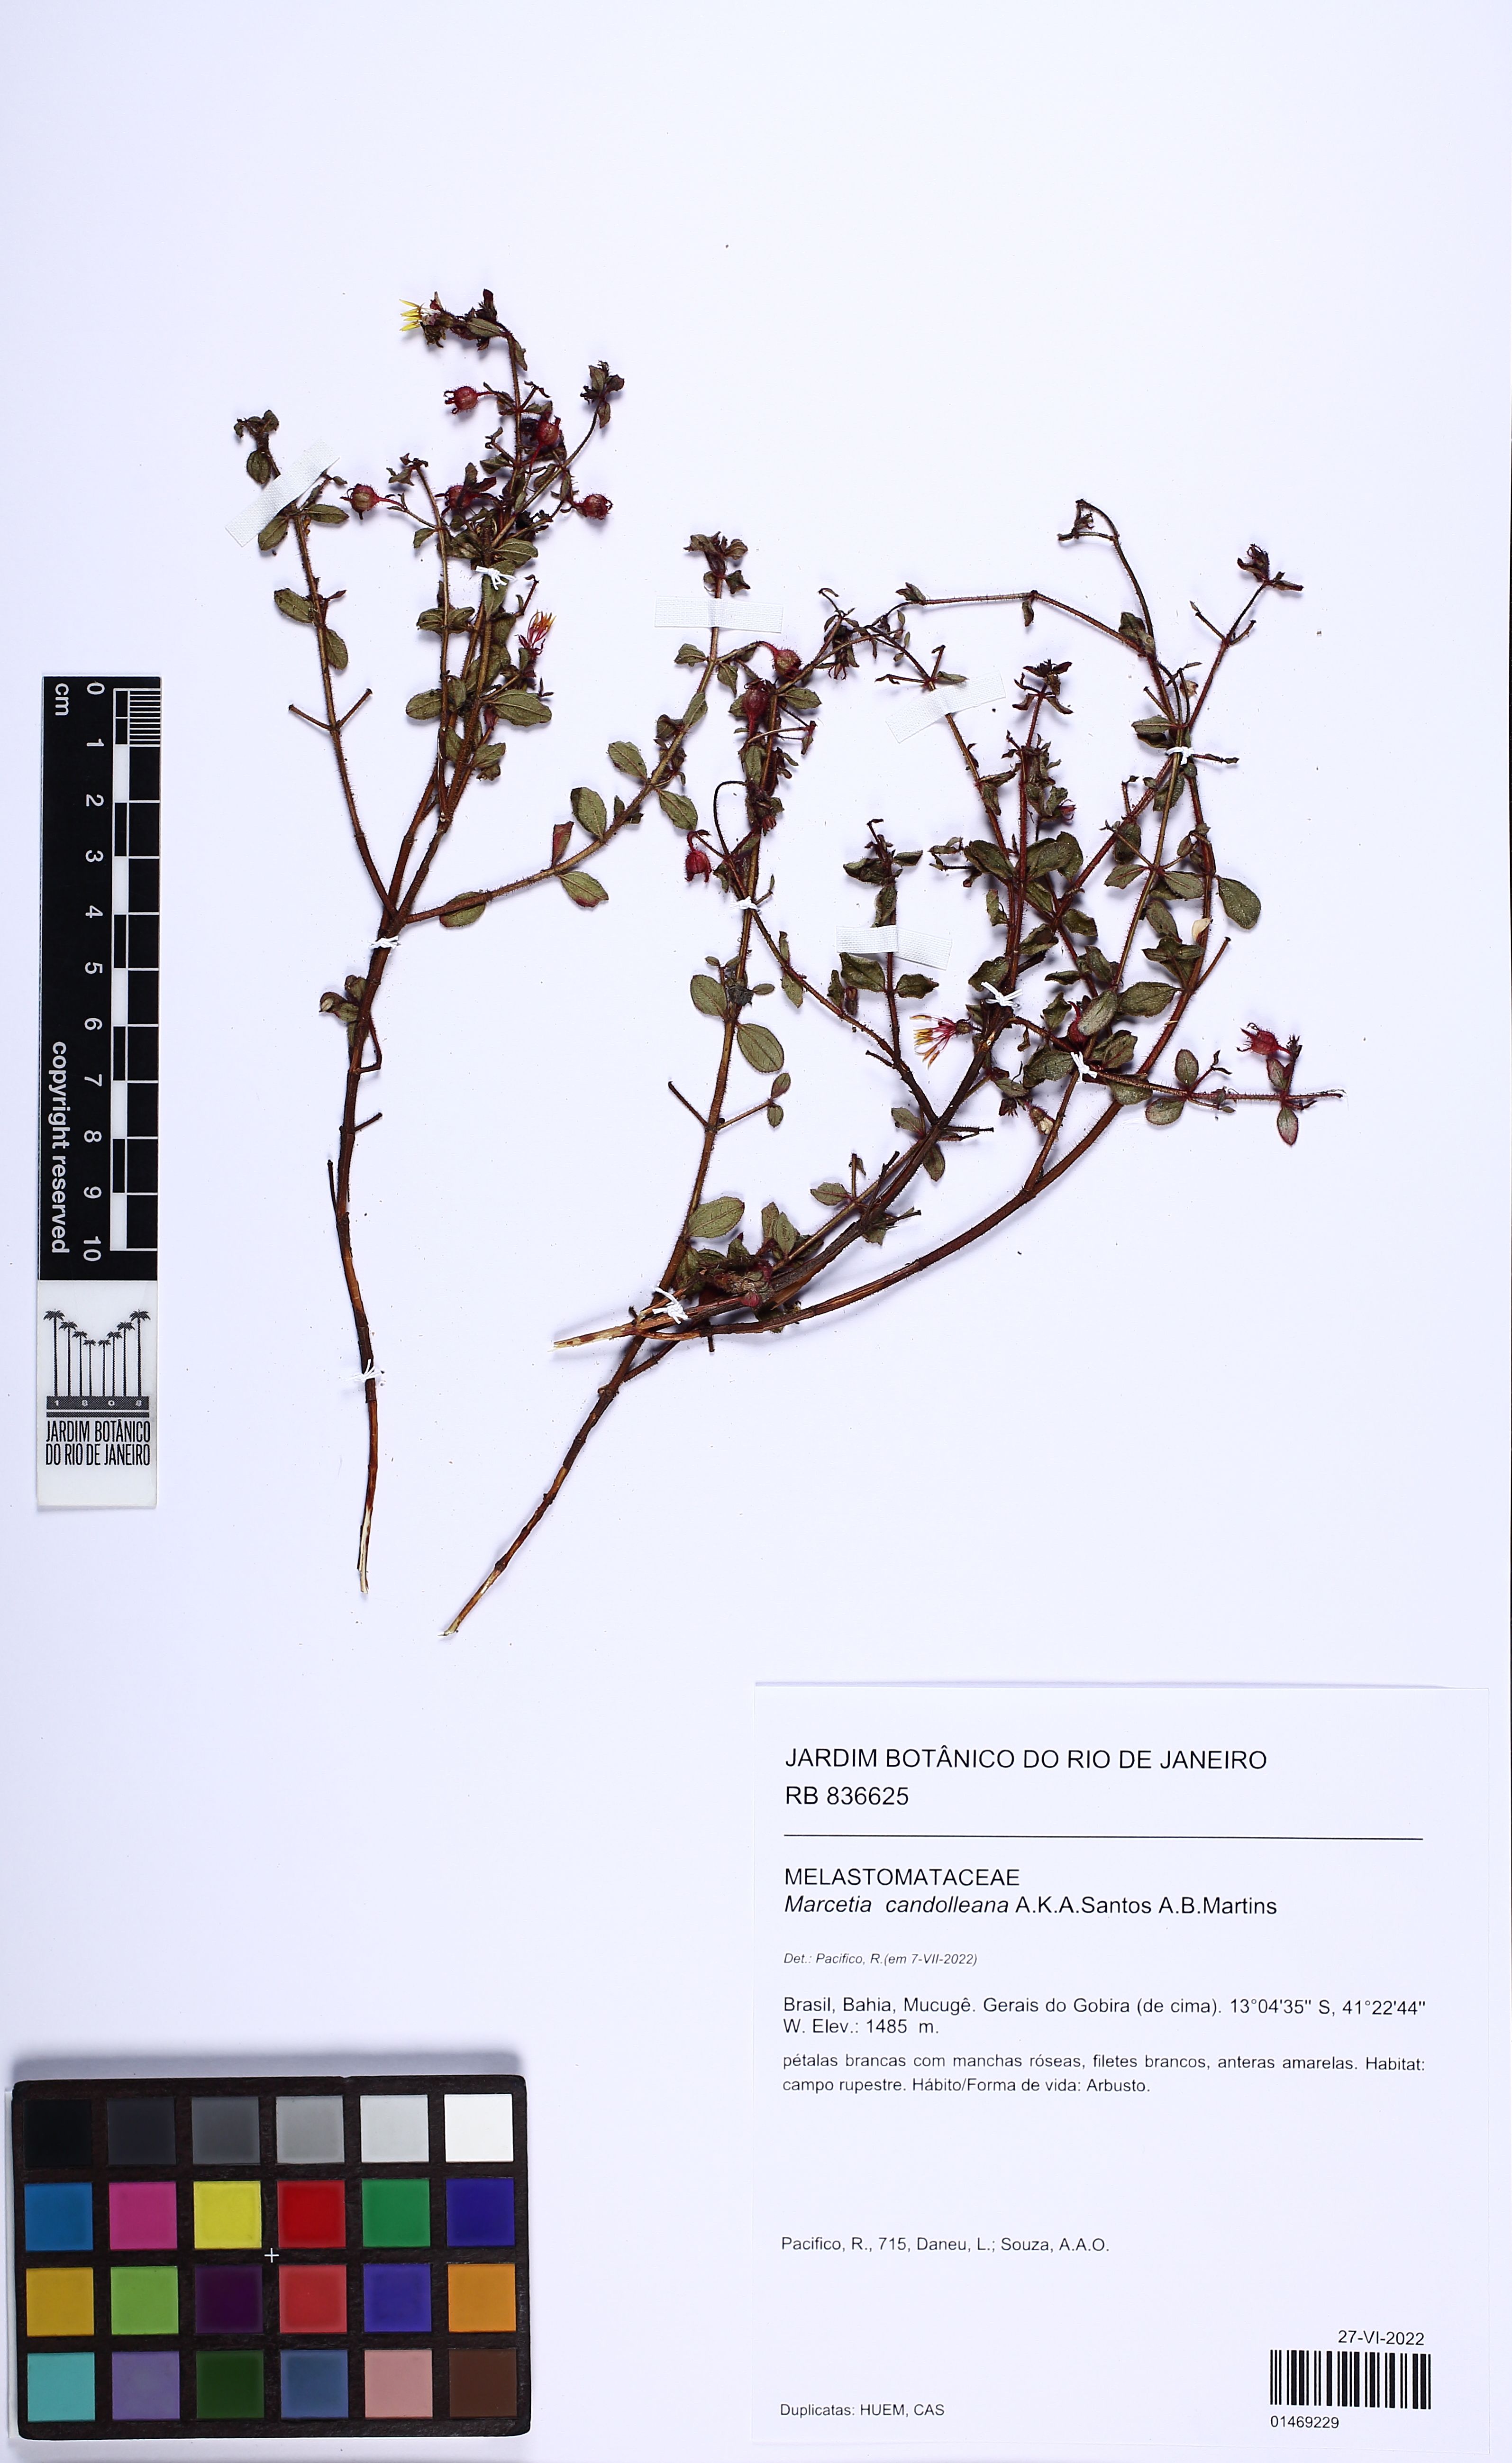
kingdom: Plantae
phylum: Tracheophyta
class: Magnoliopsida
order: Myrtales
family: Melastomataceae
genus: Marcetia
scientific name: Marcetia candolleana
